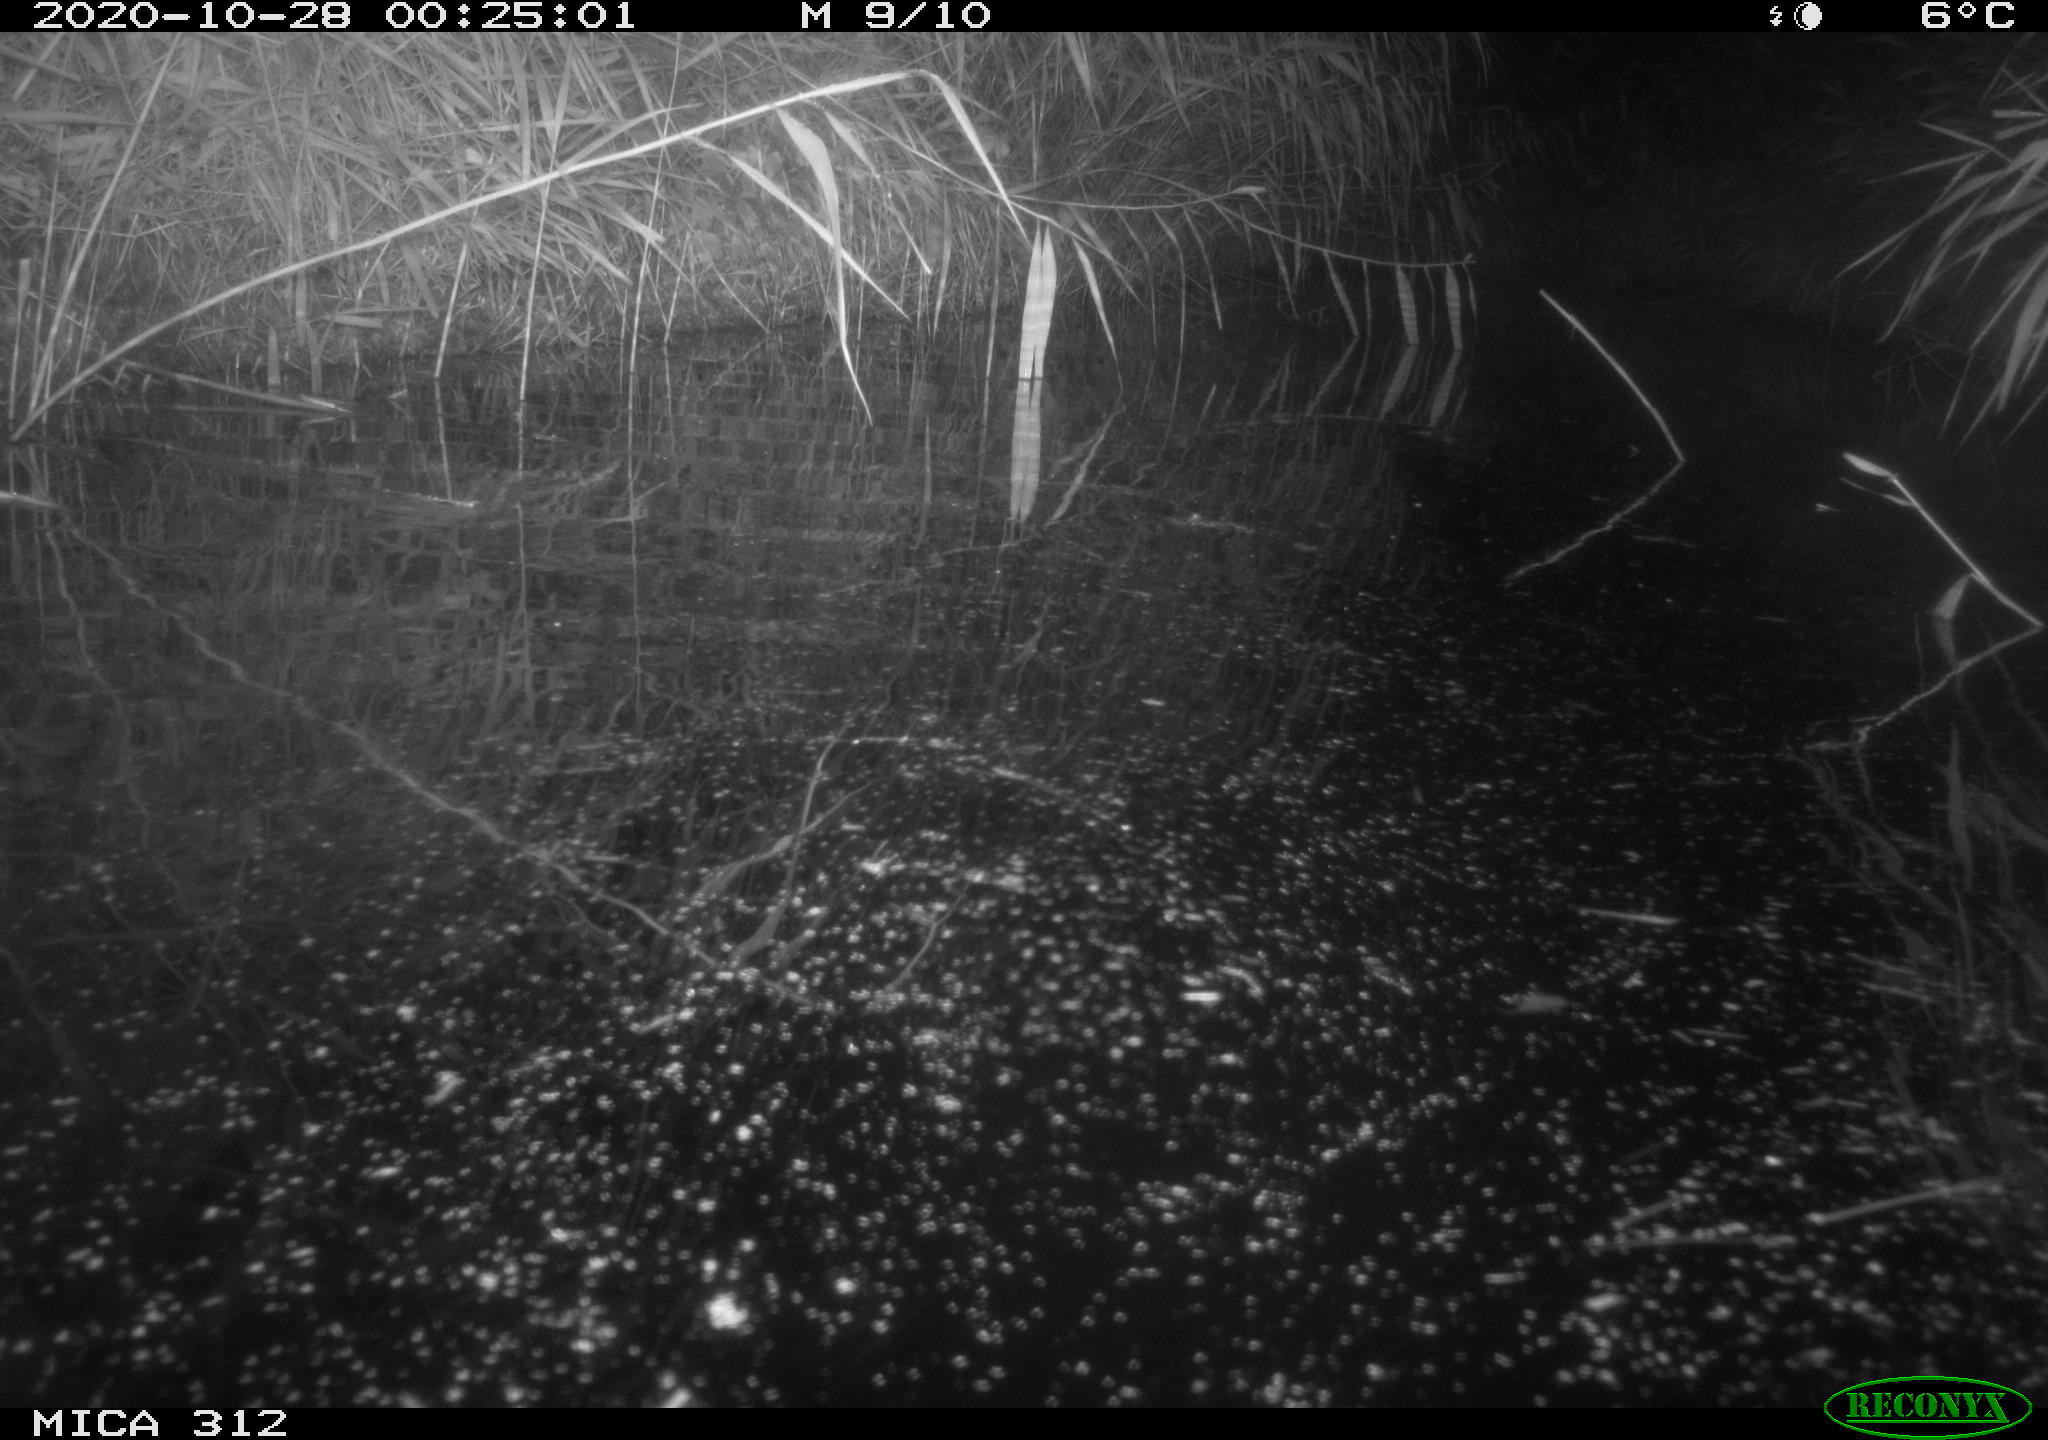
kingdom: Animalia
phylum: Chordata
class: Mammalia
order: Rodentia
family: Muridae
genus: Rattus
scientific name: Rattus norvegicus
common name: Brown rat
